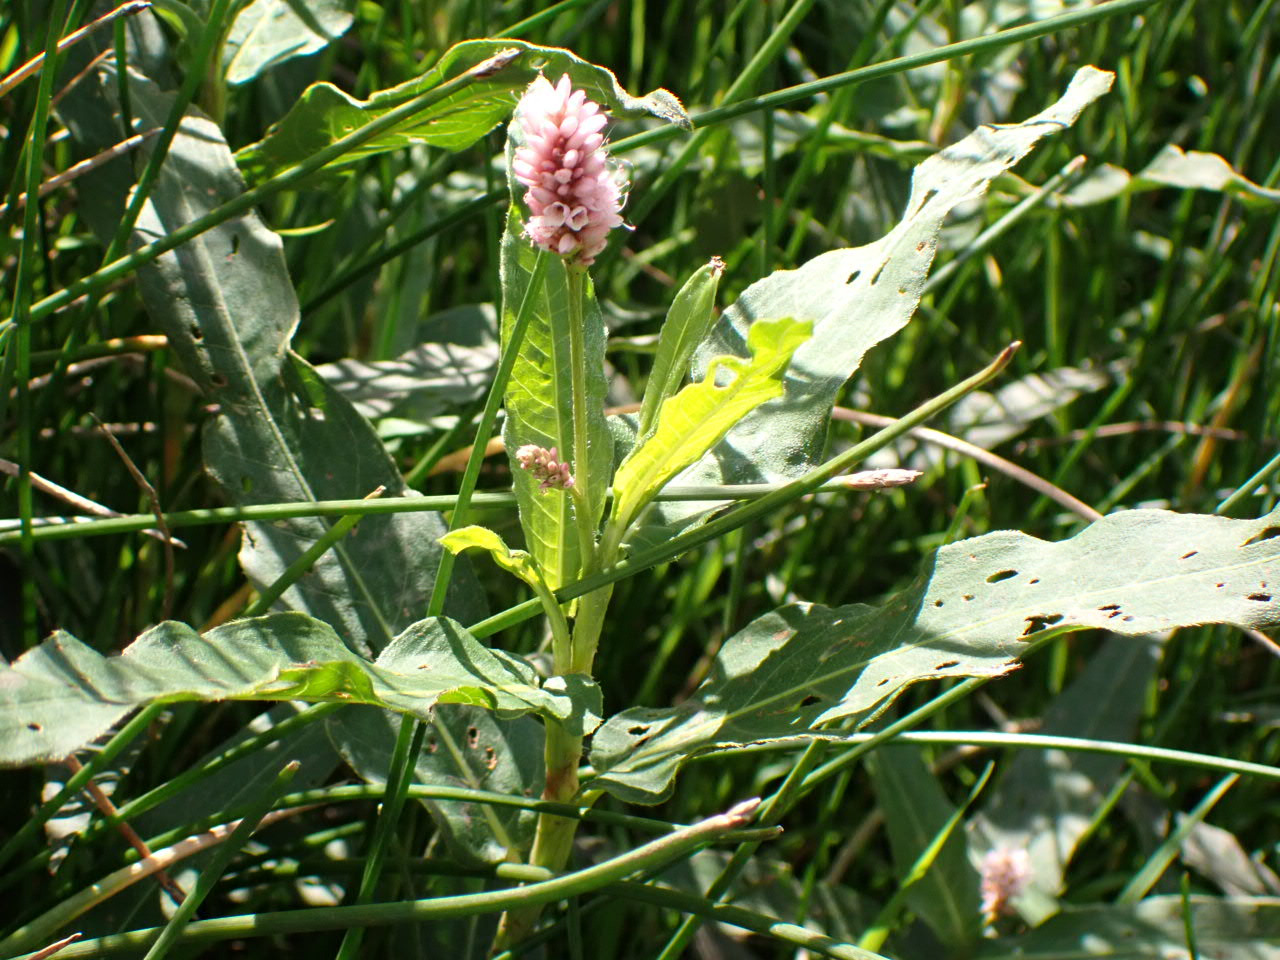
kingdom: Plantae
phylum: Tracheophyta
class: Magnoliopsida
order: Caryophyllales
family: Polygonaceae
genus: Persicaria
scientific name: Persicaria amphibia
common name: Vand-pileurt
